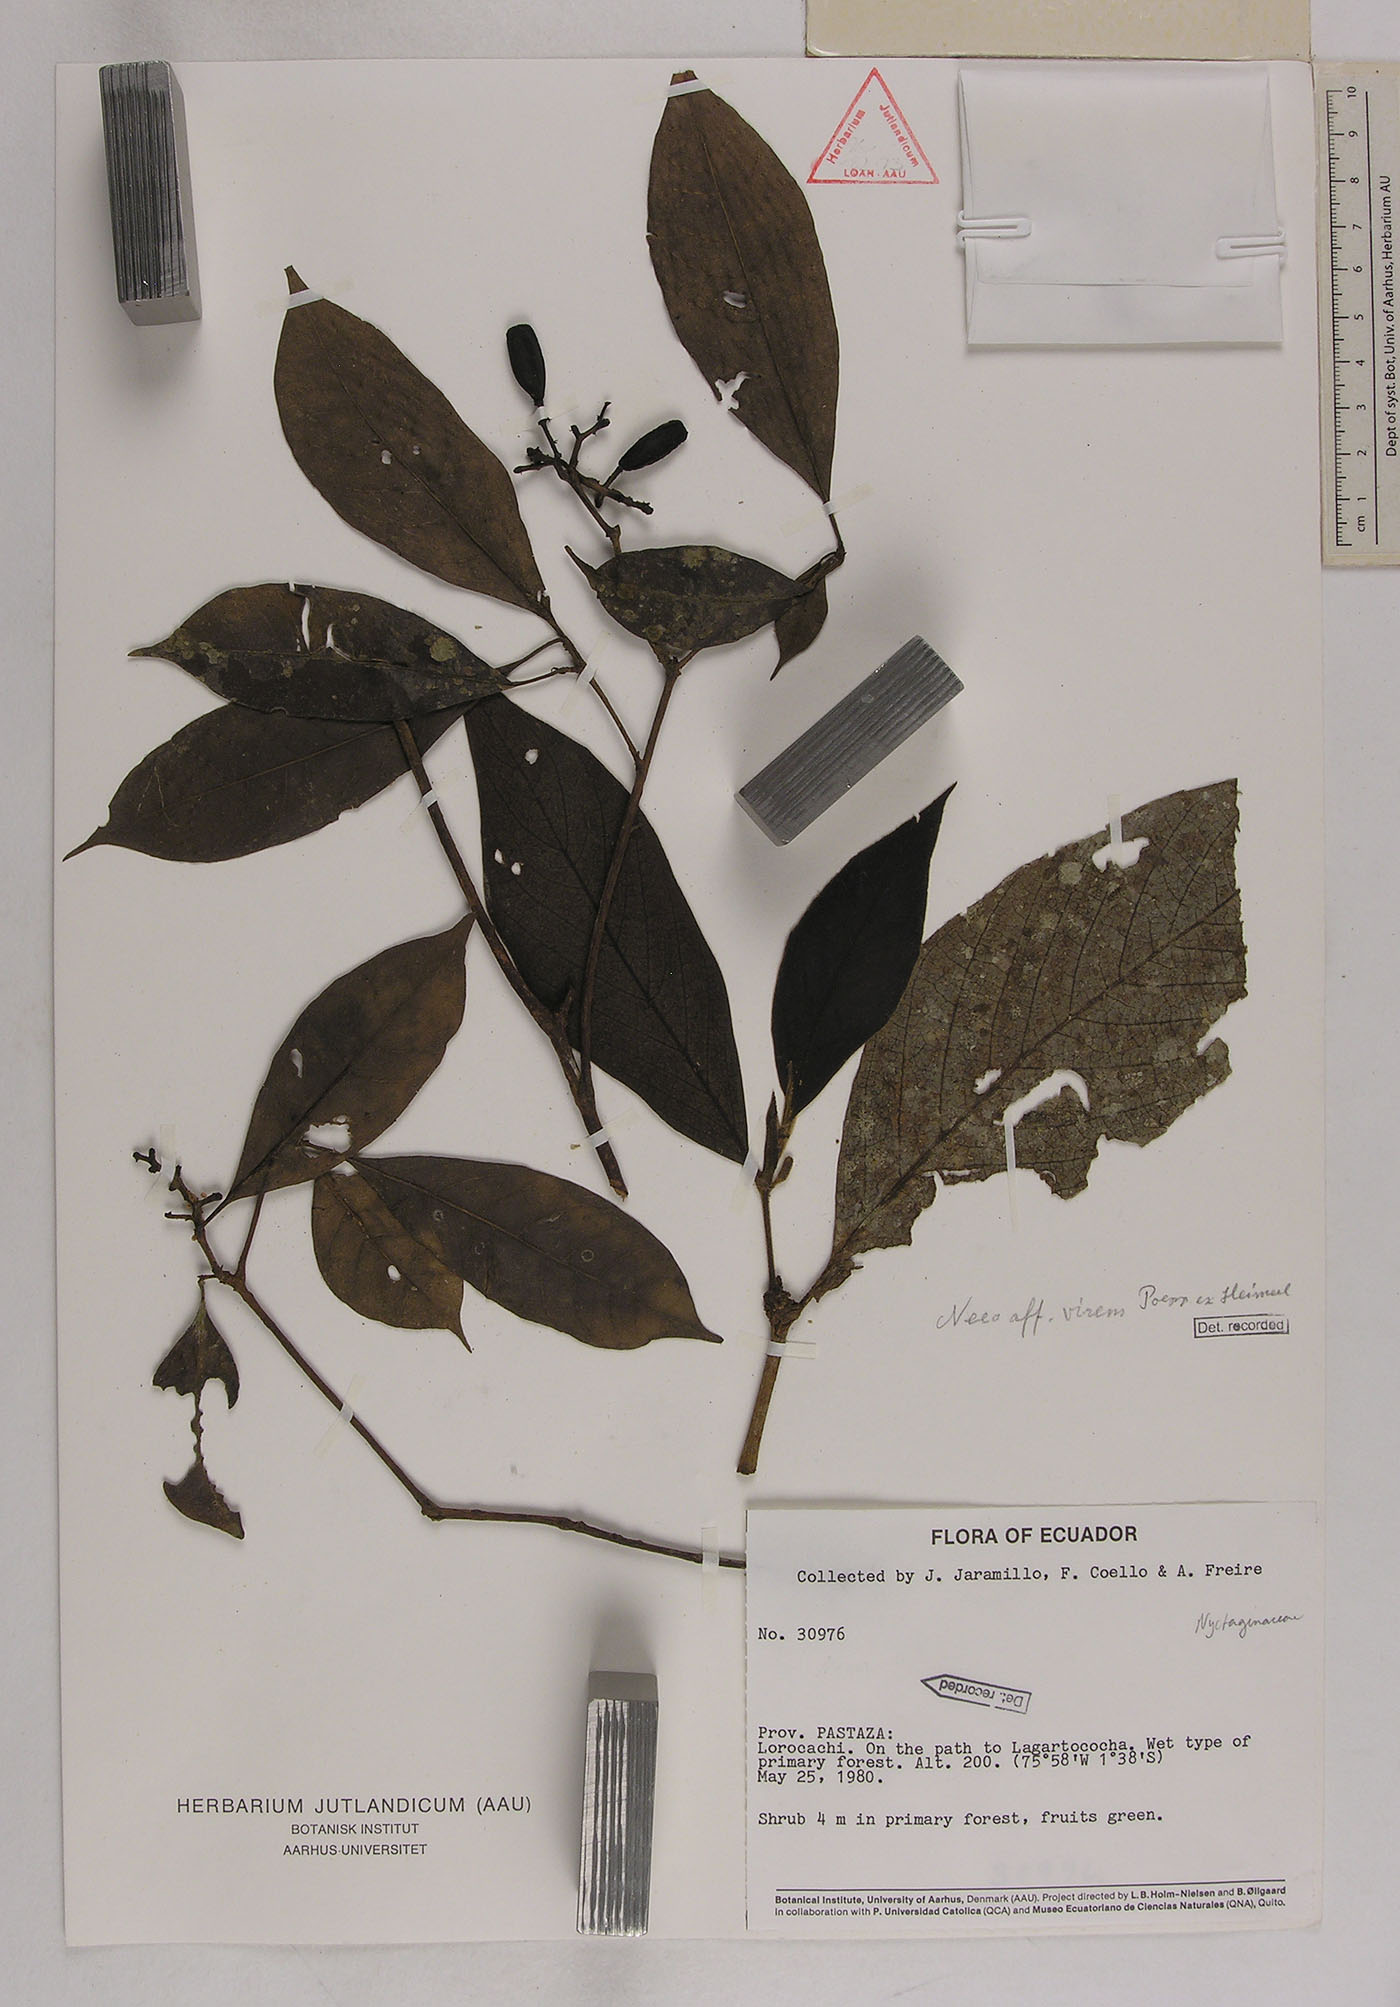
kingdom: Plantae
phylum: Tracheophyta
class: Magnoliopsida
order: Caryophyllales
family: Nyctaginaceae
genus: Neea
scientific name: Neea virens
